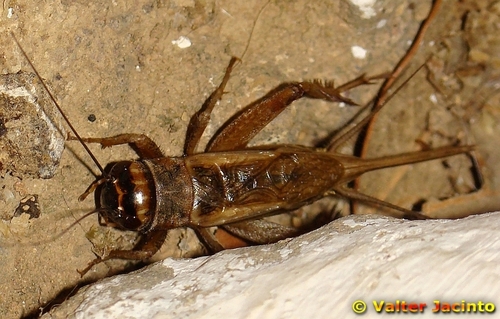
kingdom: Animalia
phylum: Arthropoda
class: Insecta
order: Orthoptera
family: Gryllidae
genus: Acheta
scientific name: Acheta domesticus
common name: House cricket
